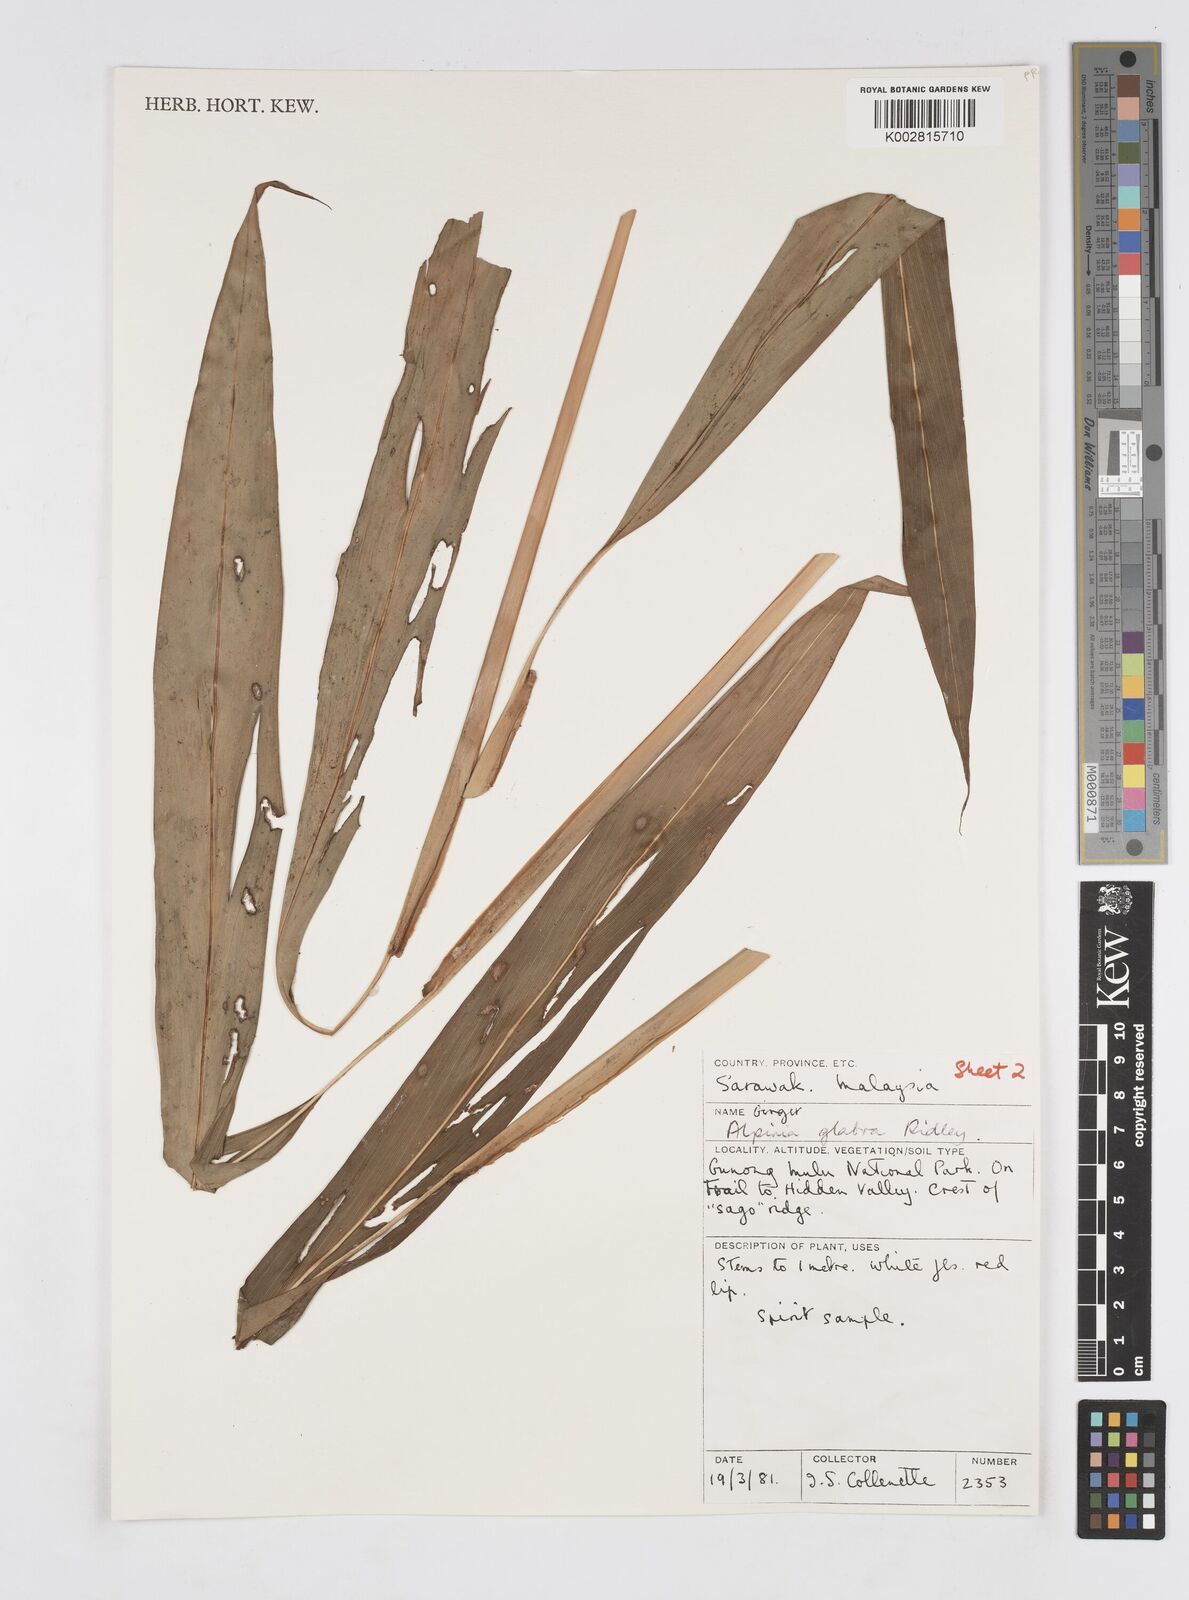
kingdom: Plantae
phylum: Tracheophyta
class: Liliopsida
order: Zingiberales
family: Zingiberaceae
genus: Alpinia
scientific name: Alpinia glabra
